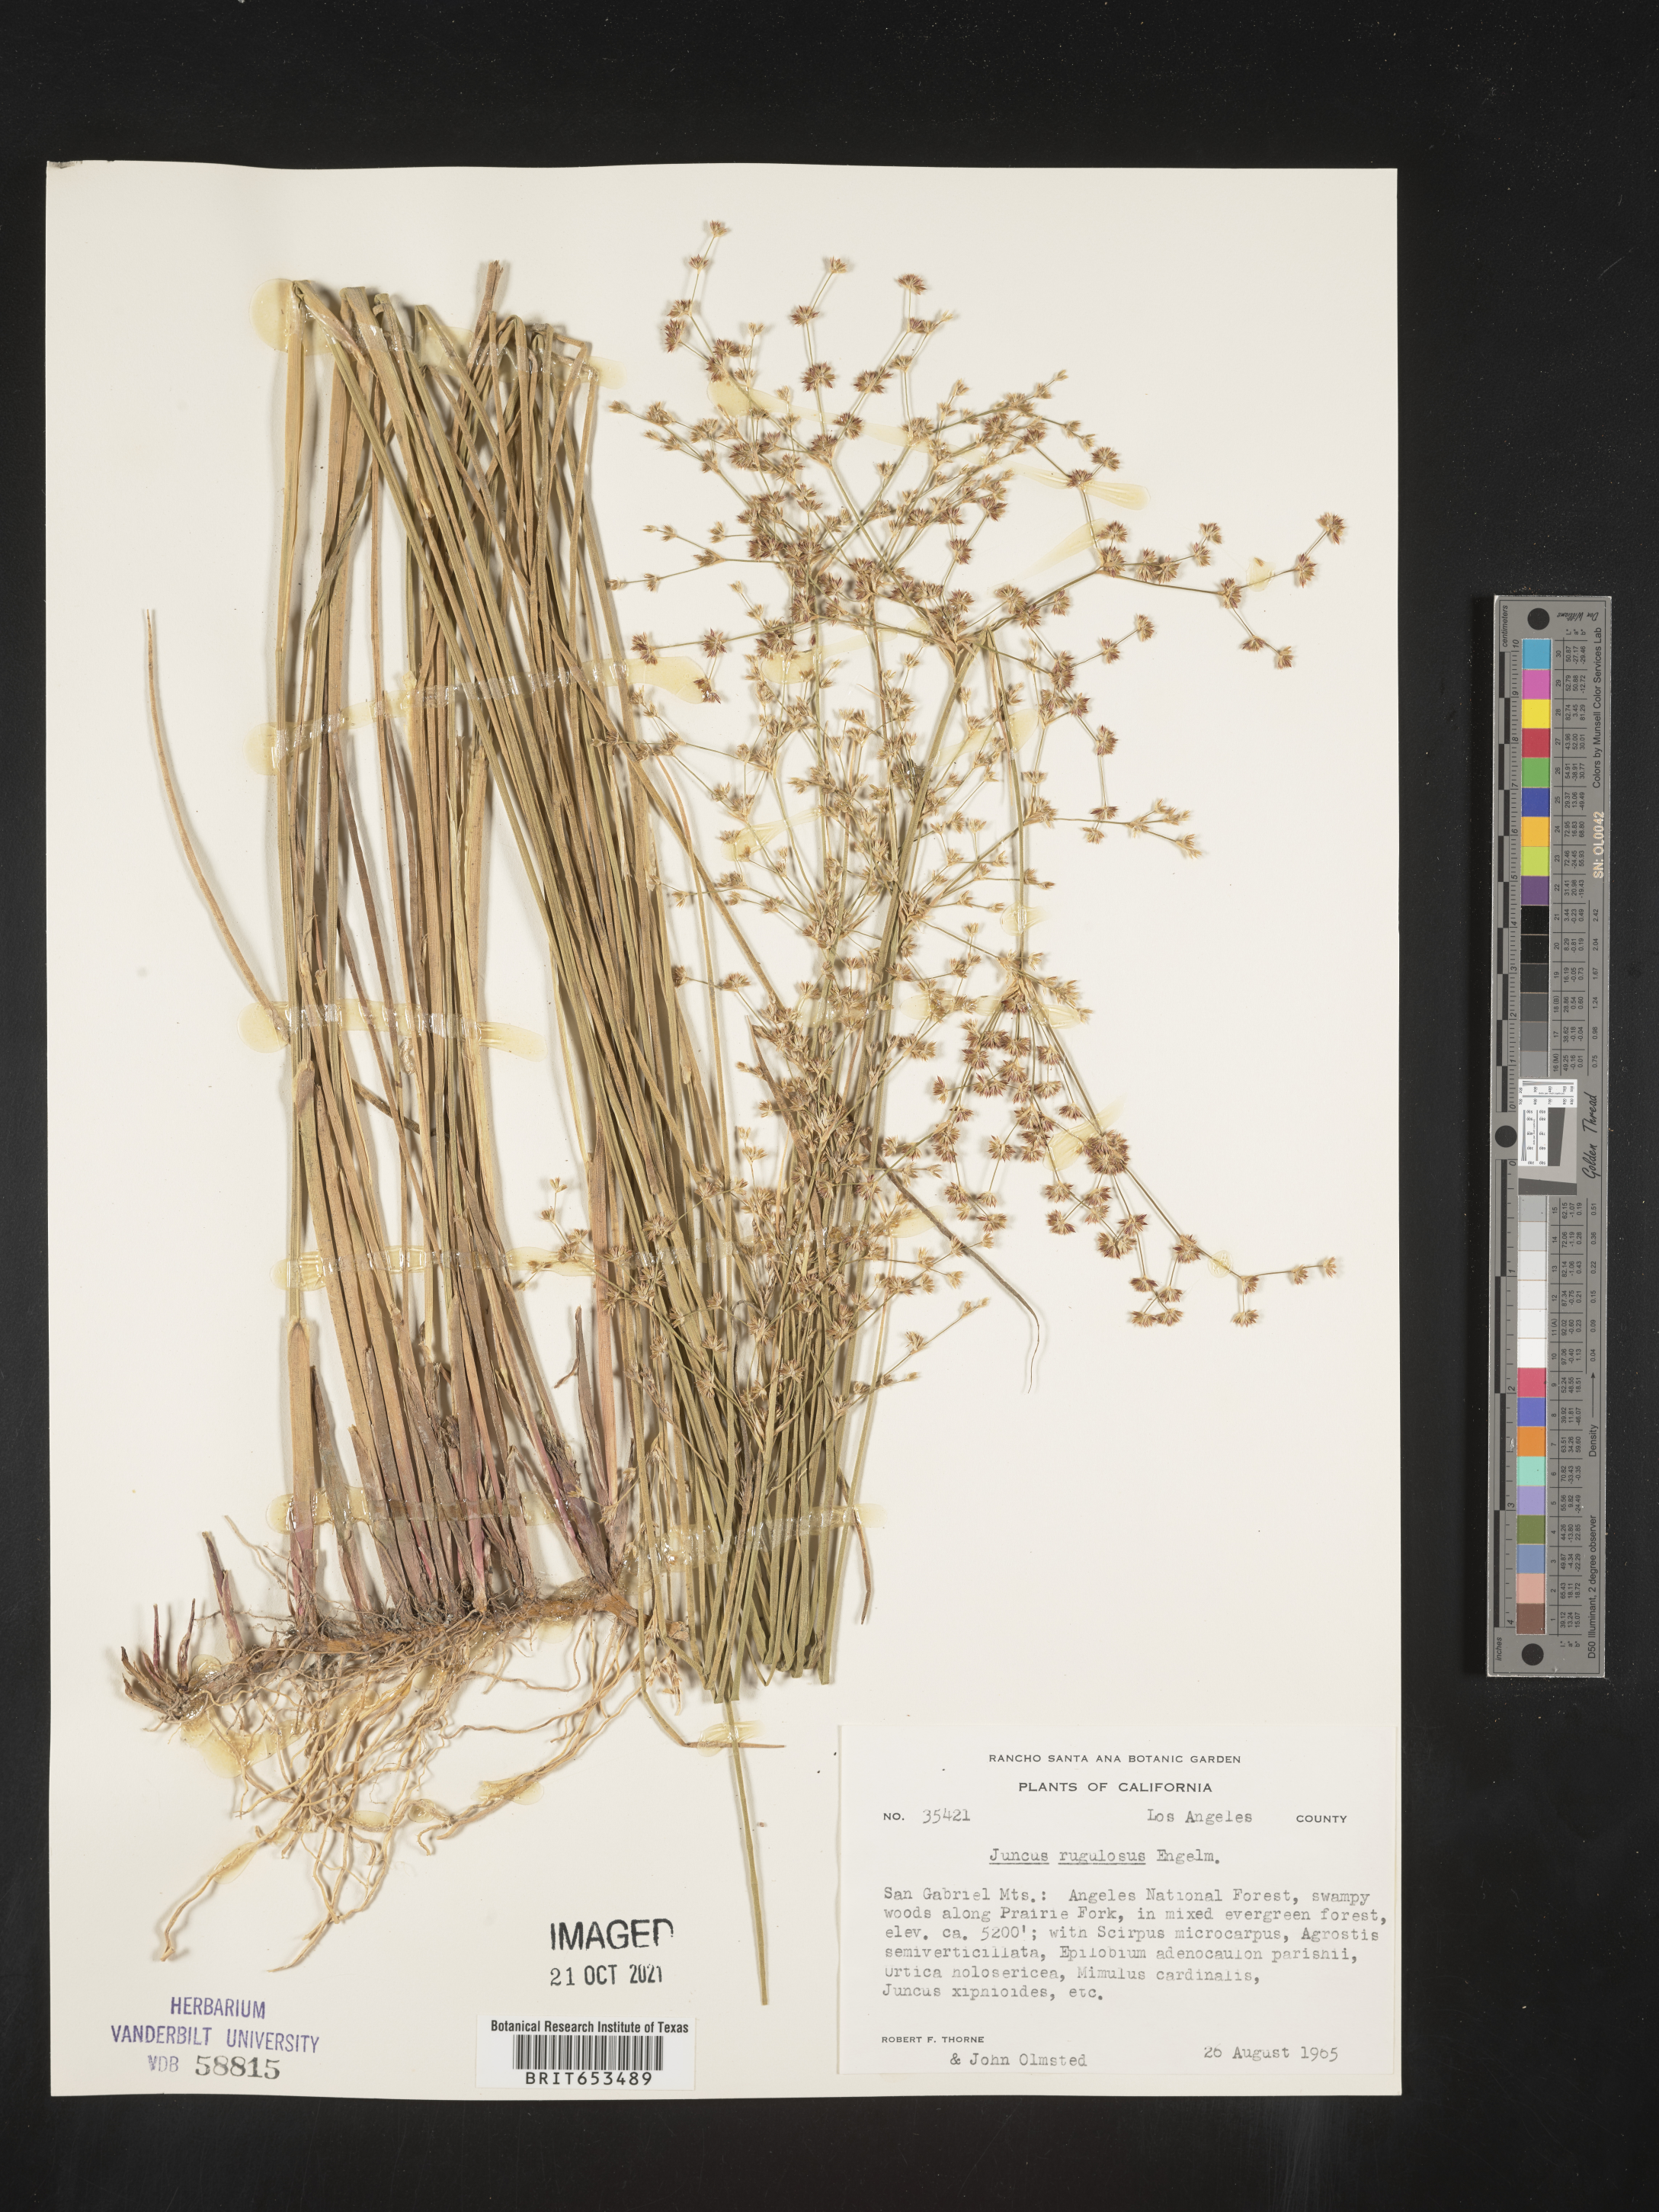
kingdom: Plantae
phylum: Tracheophyta
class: Liliopsida
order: Poales
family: Juncaceae
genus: Juncus
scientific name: Juncus rugulosus
